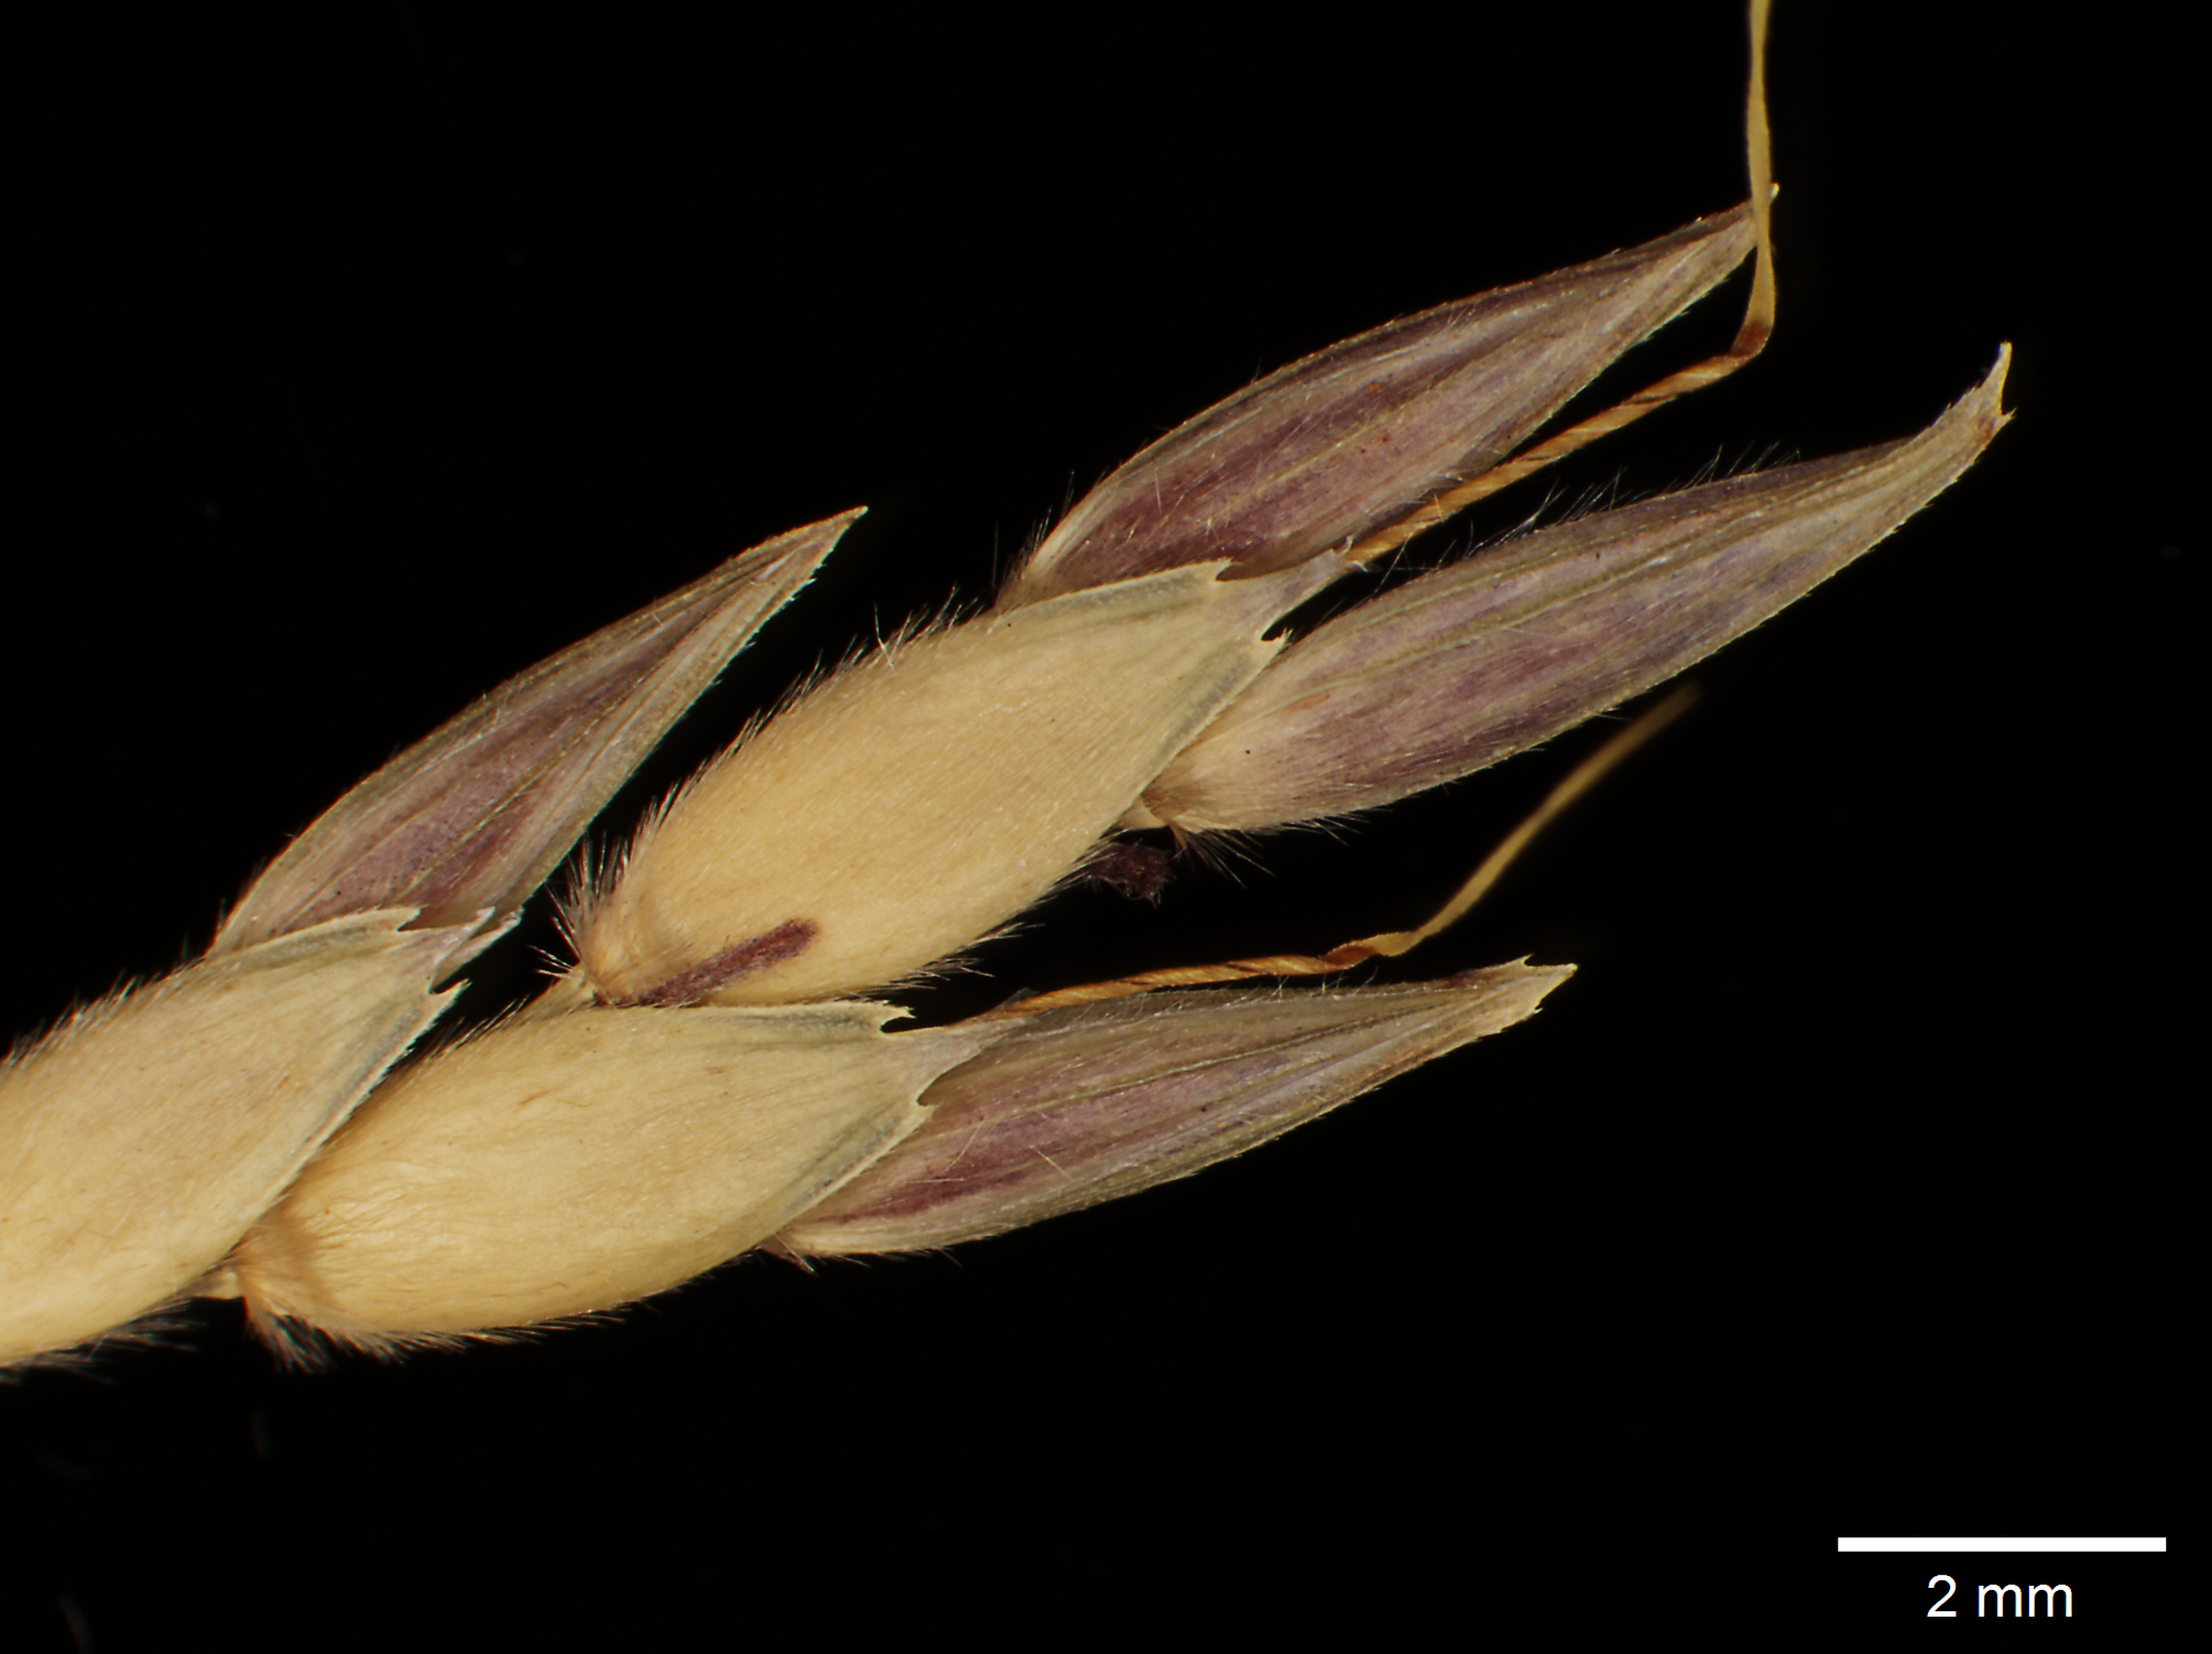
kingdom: Plantae
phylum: Tracheophyta
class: Liliopsida
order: Poales
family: Poaceae
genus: Sorghum
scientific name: Sorghum halepense
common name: Johnson-grass
